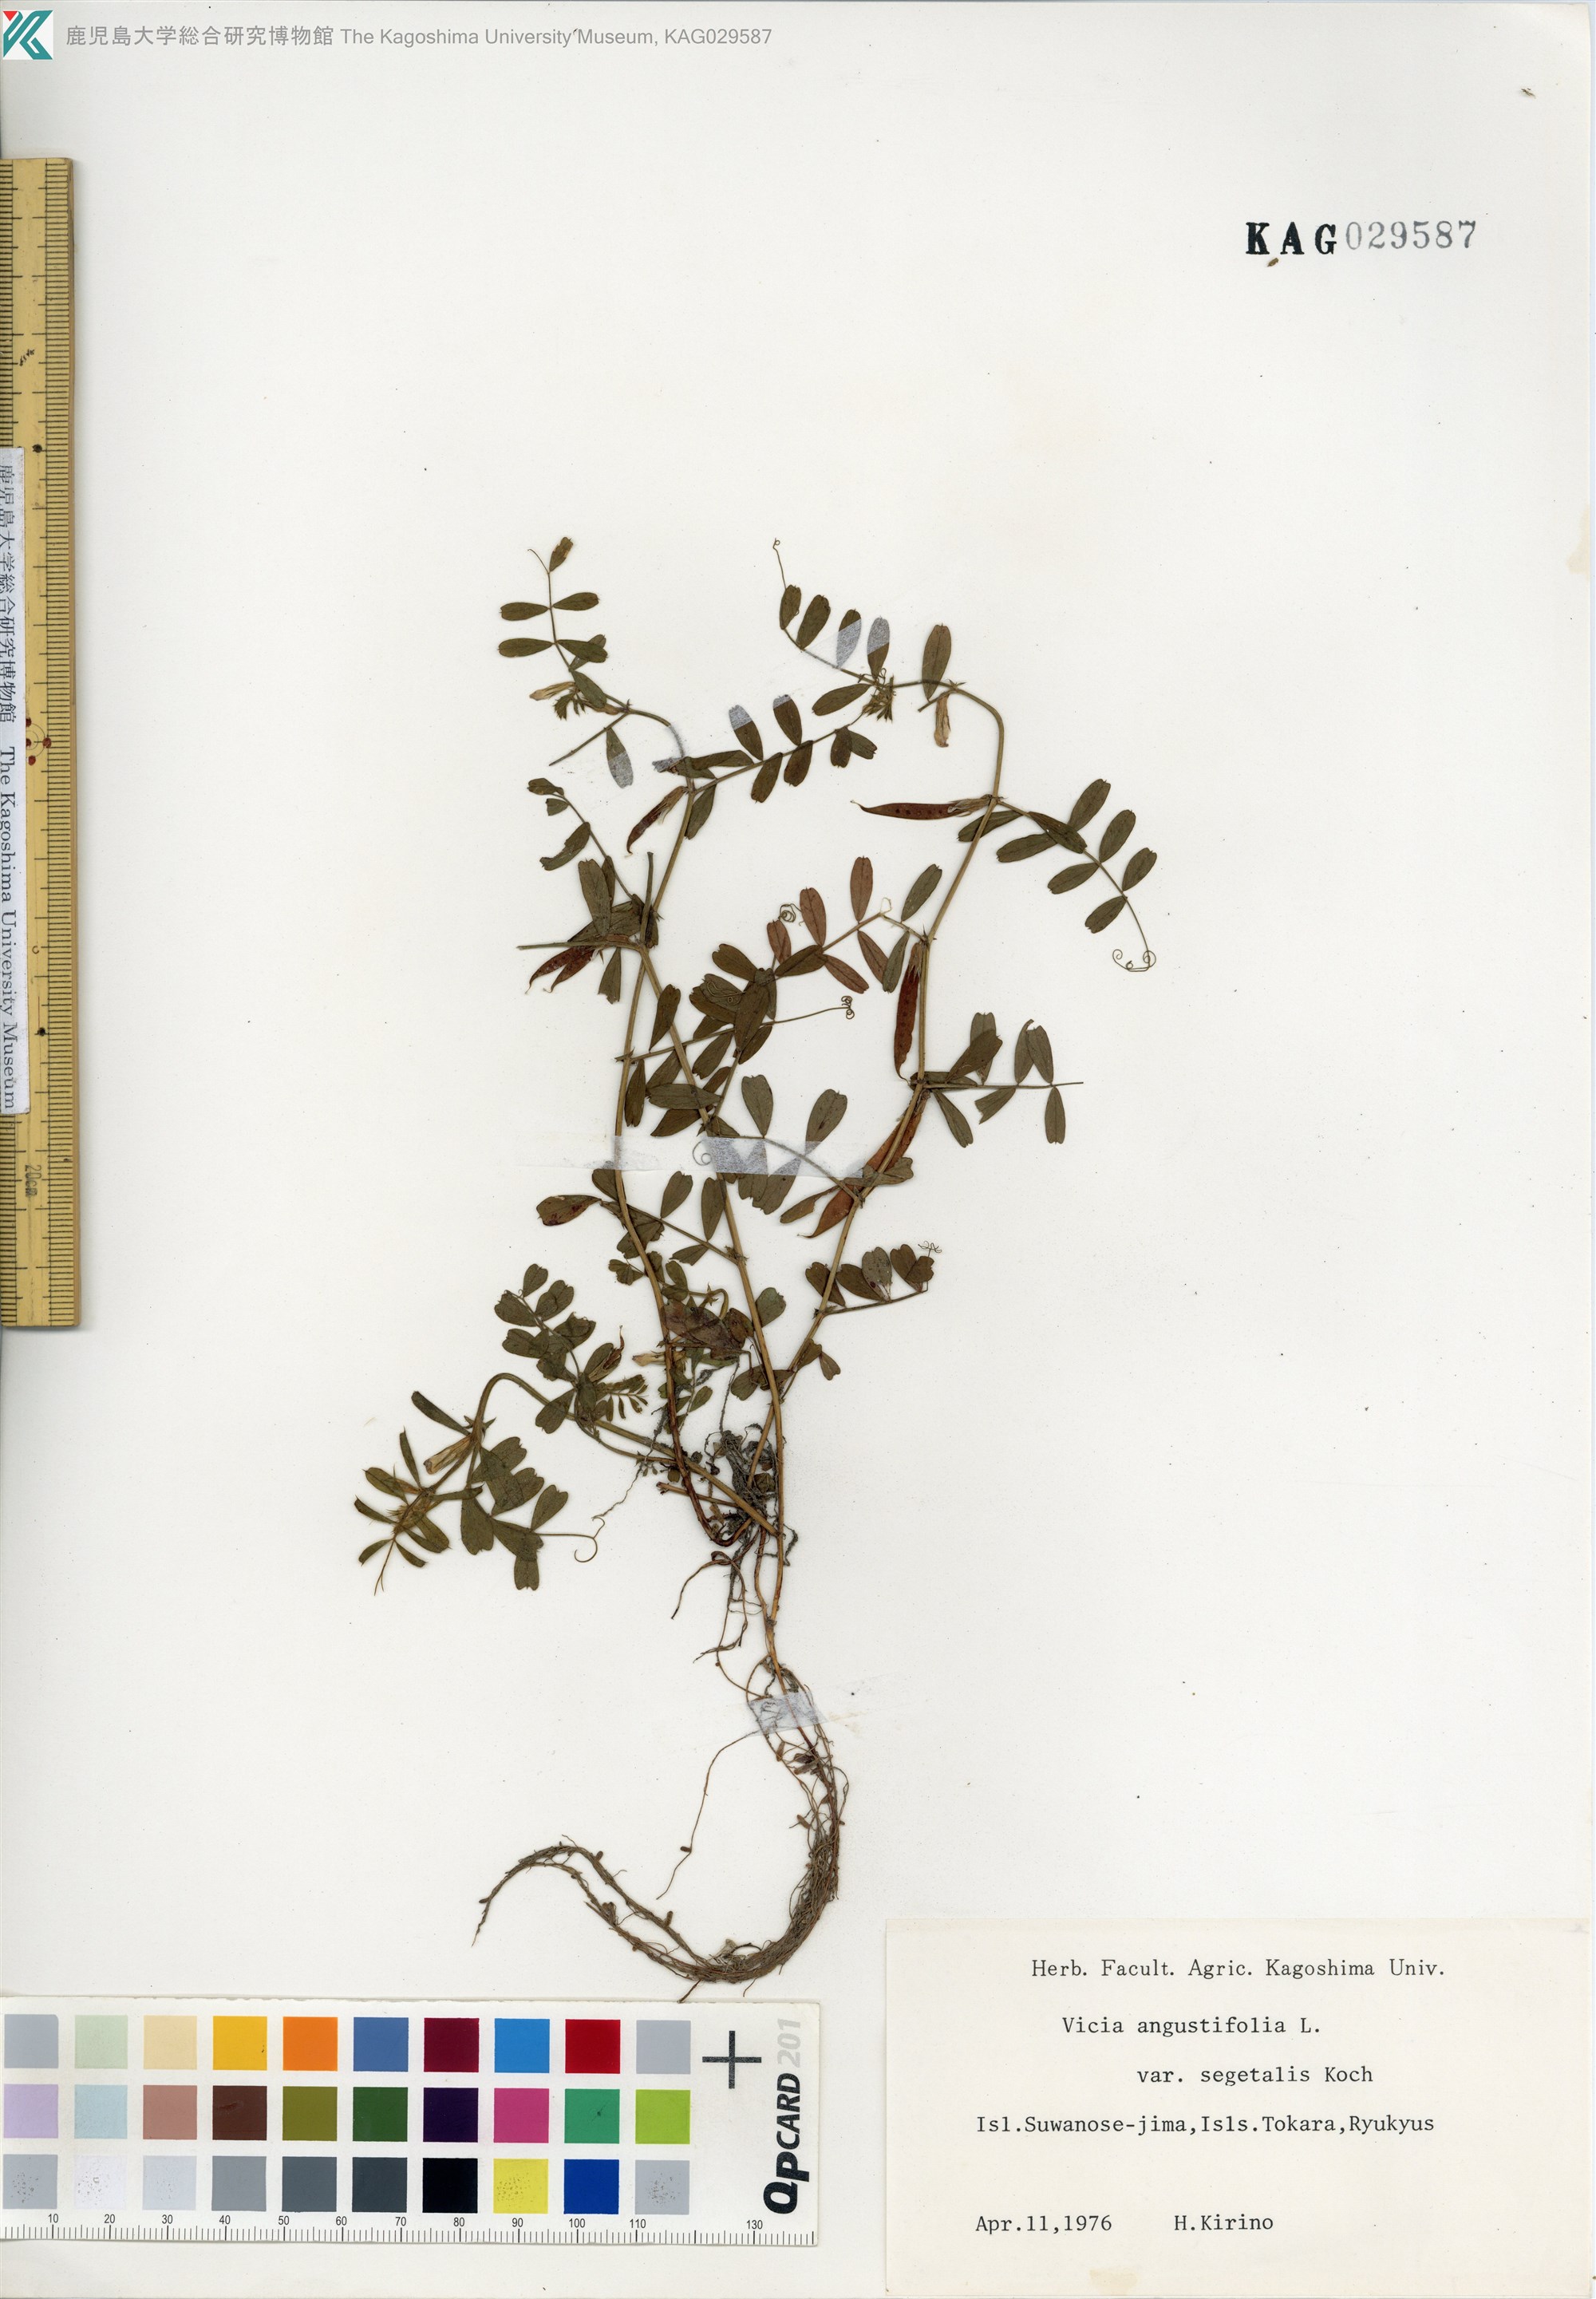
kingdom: Plantae
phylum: Tracheophyta
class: Magnoliopsida
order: Fabales
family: Fabaceae
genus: Vicia
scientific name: Vicia sativa
